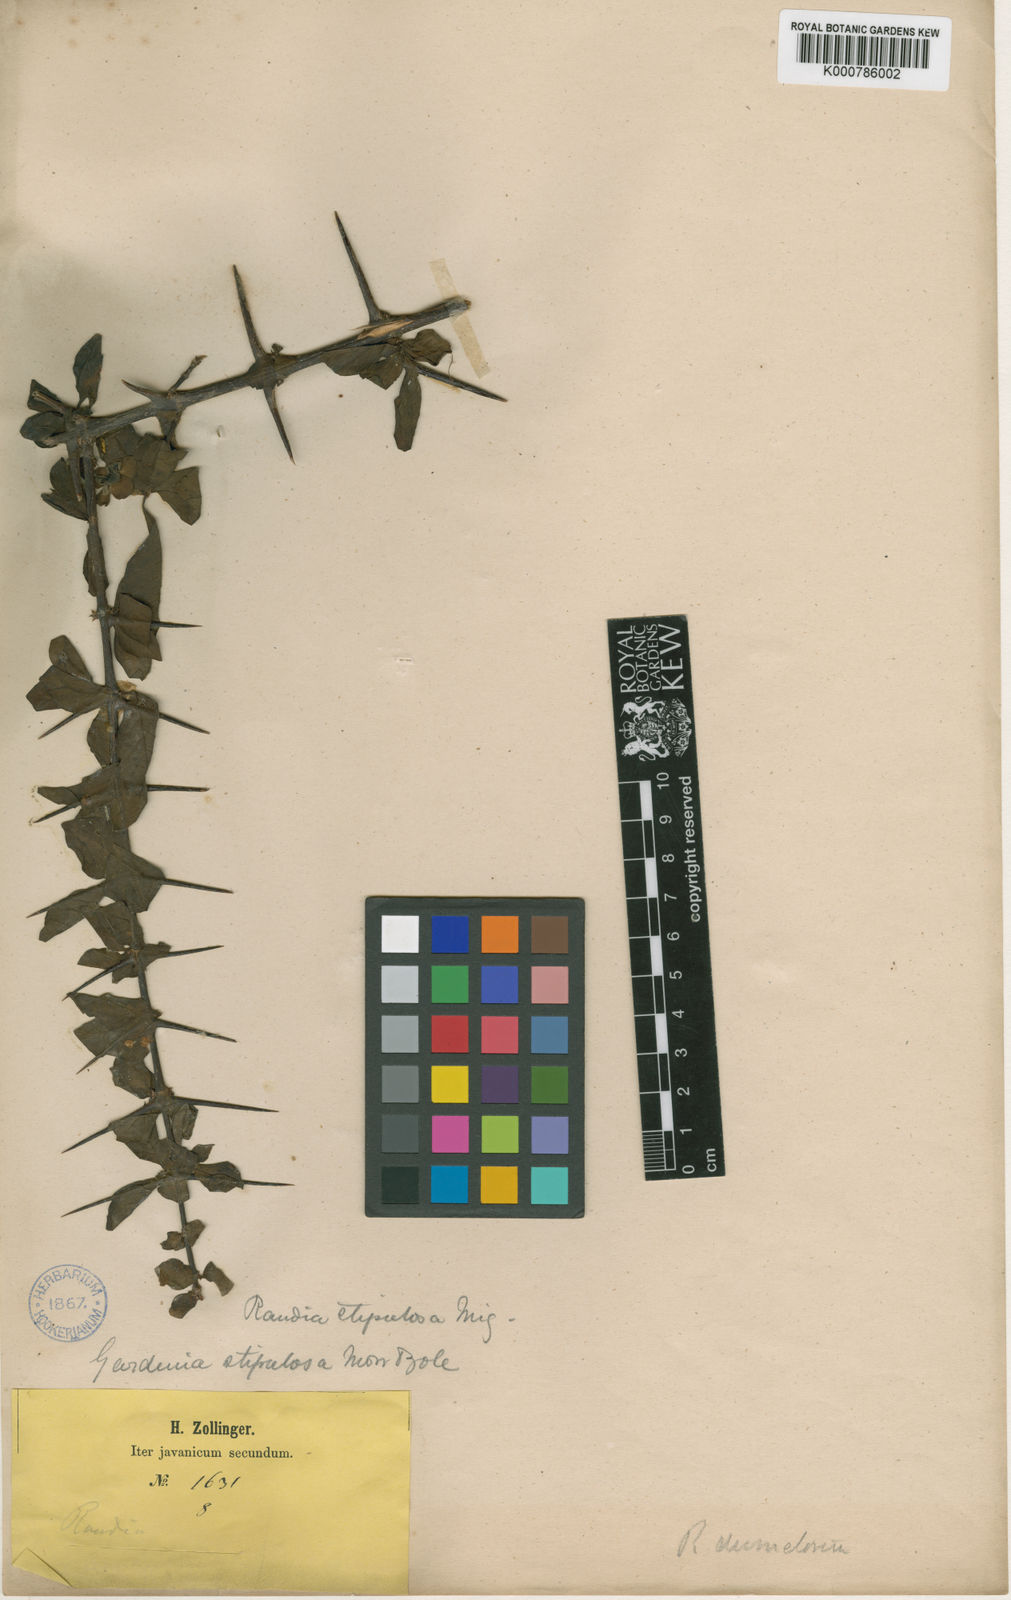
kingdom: Plantae
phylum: Tracheophyta
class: Magnoliopsida
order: Gentianales
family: Rubiaceae
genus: Catunaregam
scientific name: Catunaregam oocarpa
